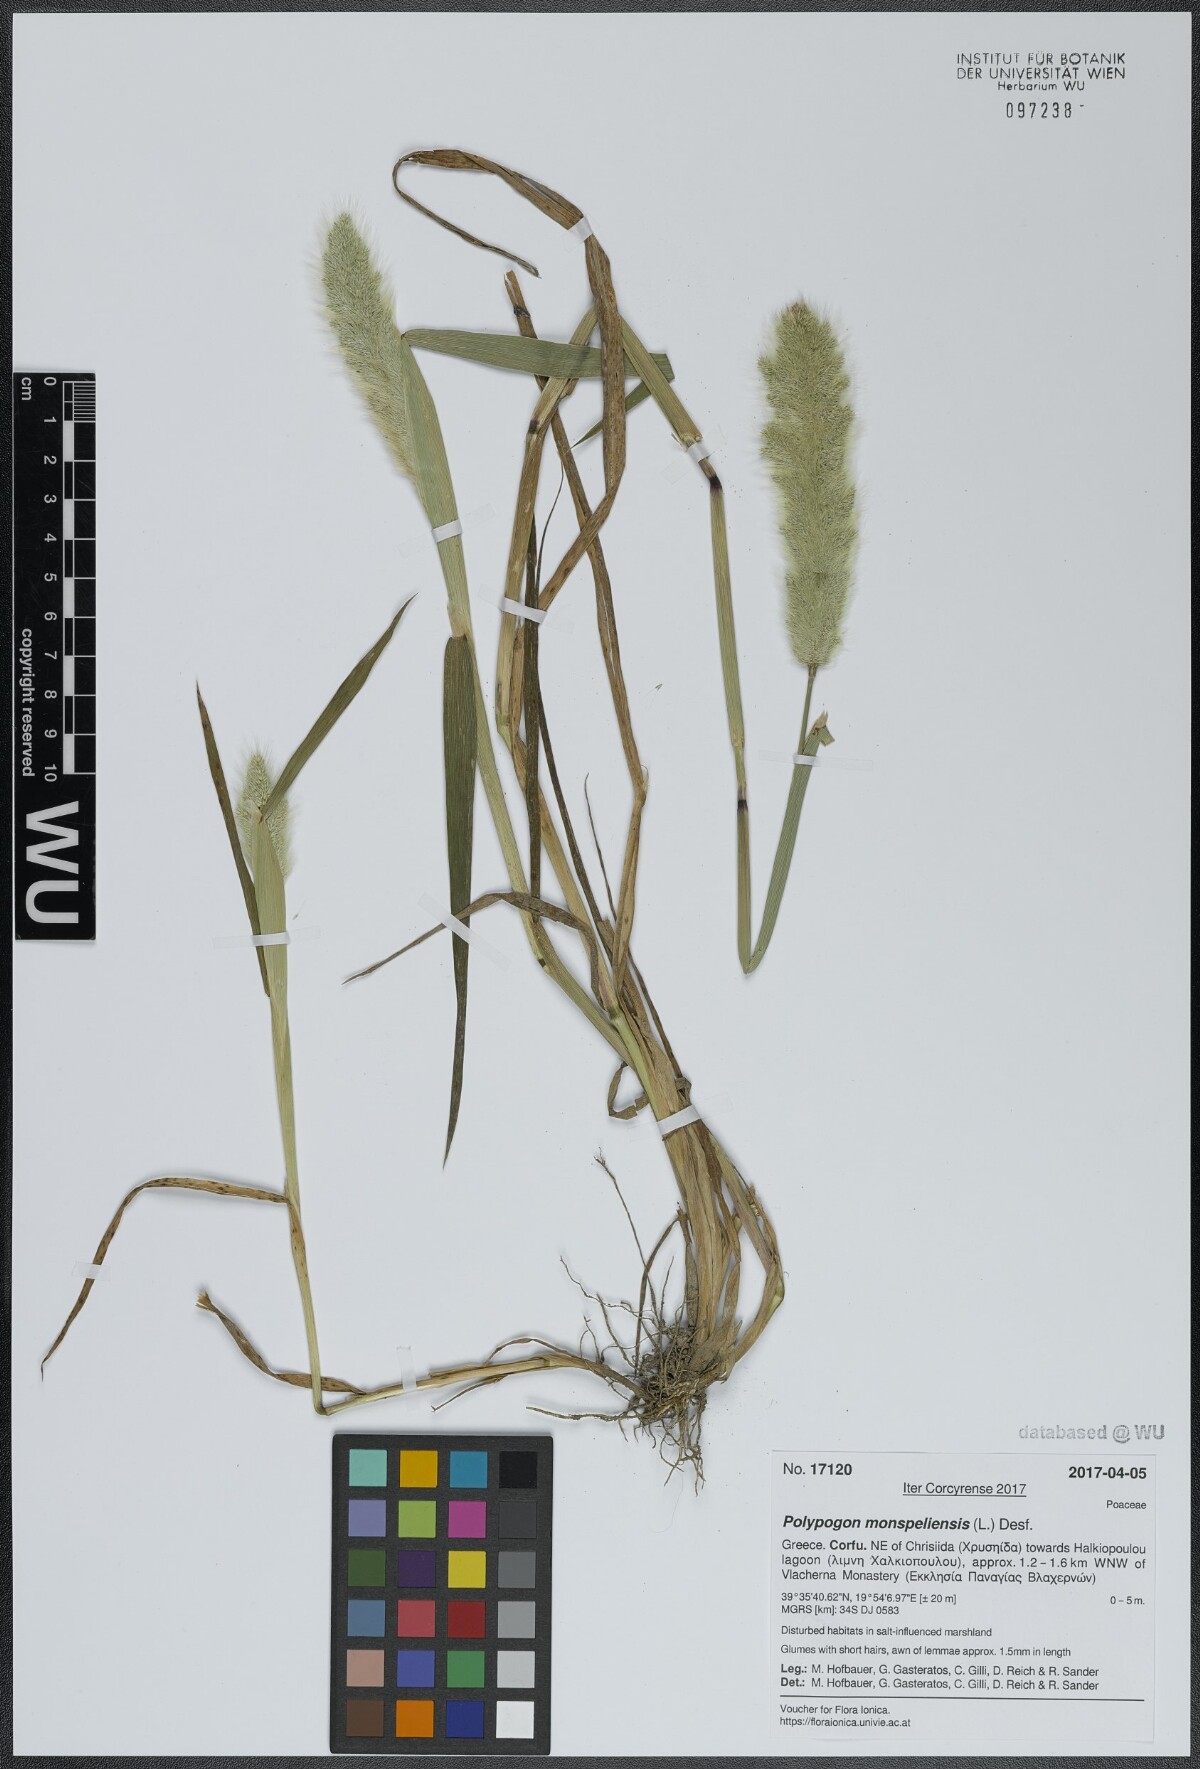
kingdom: Plantae
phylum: Tracheophyta
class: Liliopsida
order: Poales
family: Poaceae
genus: Polypogon
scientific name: Polypogon monspeliensis
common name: Annual rabbitsfoot grass
